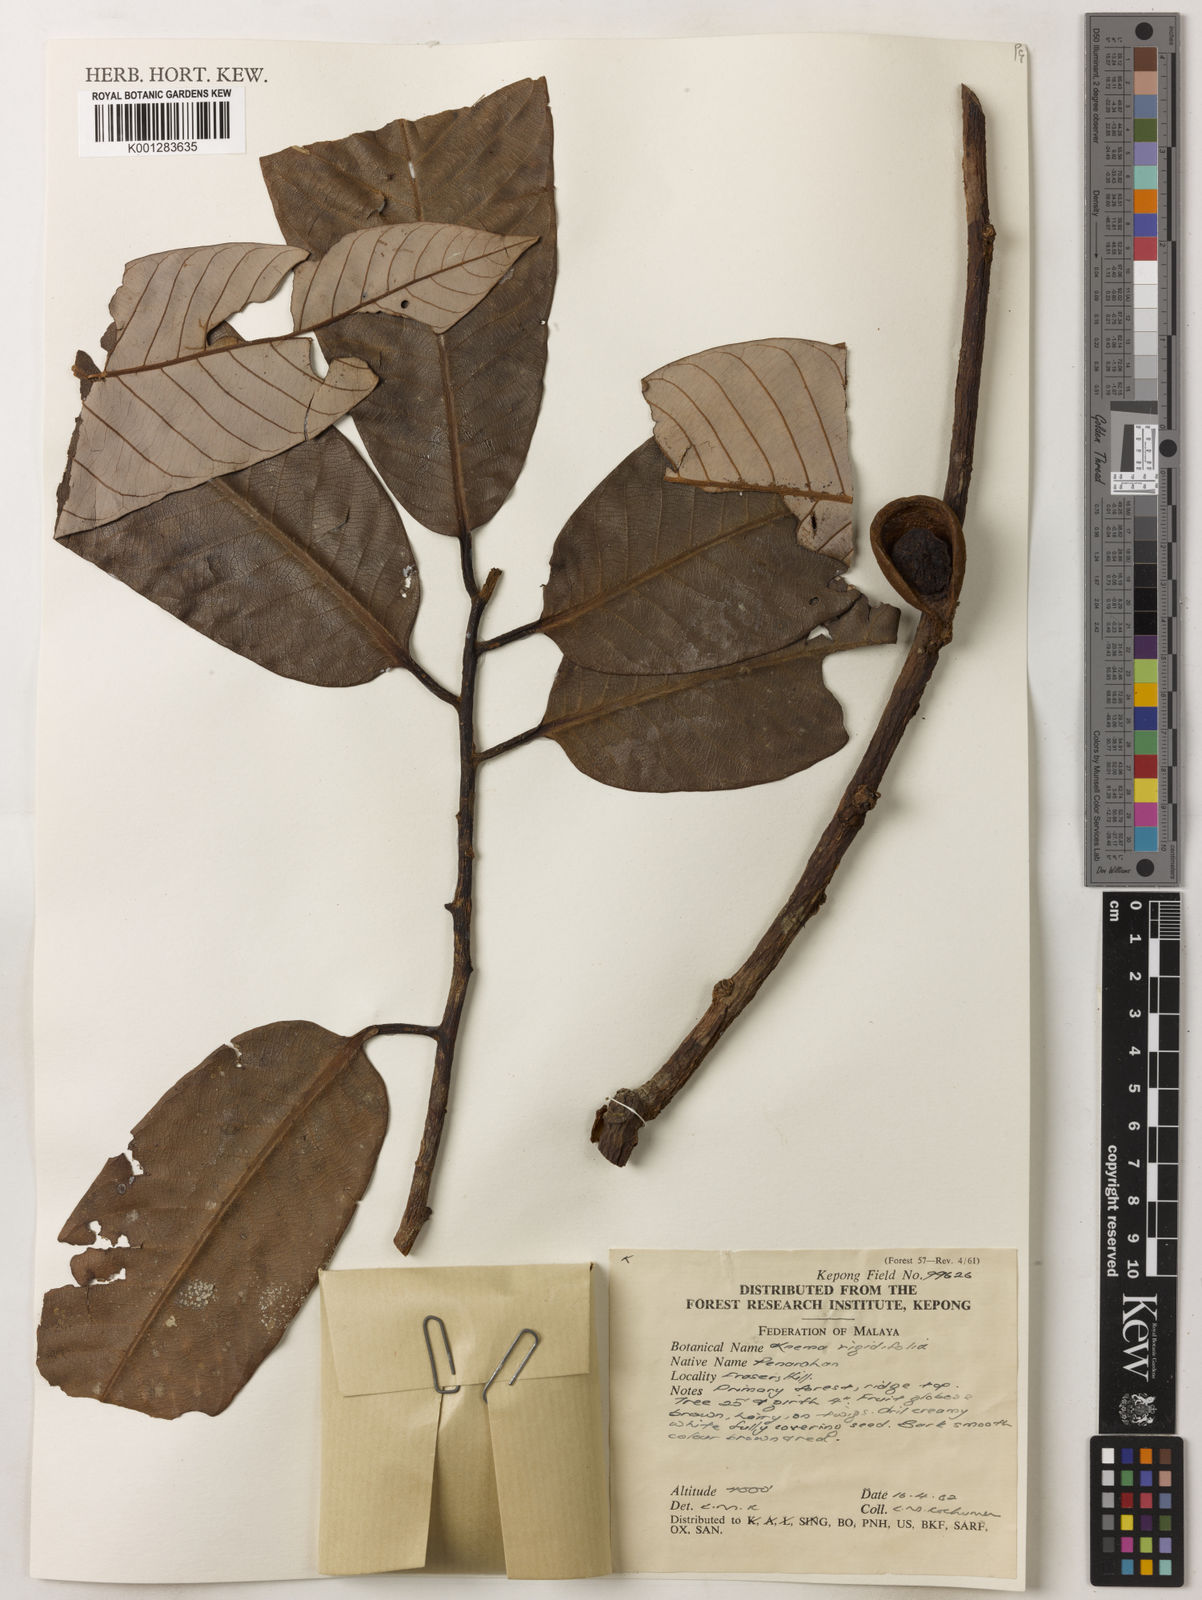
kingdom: Plantae
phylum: Tracheophyta
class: Magnoliopsida
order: Magnoliales
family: Myristicaceae
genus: Knema
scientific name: Knema rigidifolia
